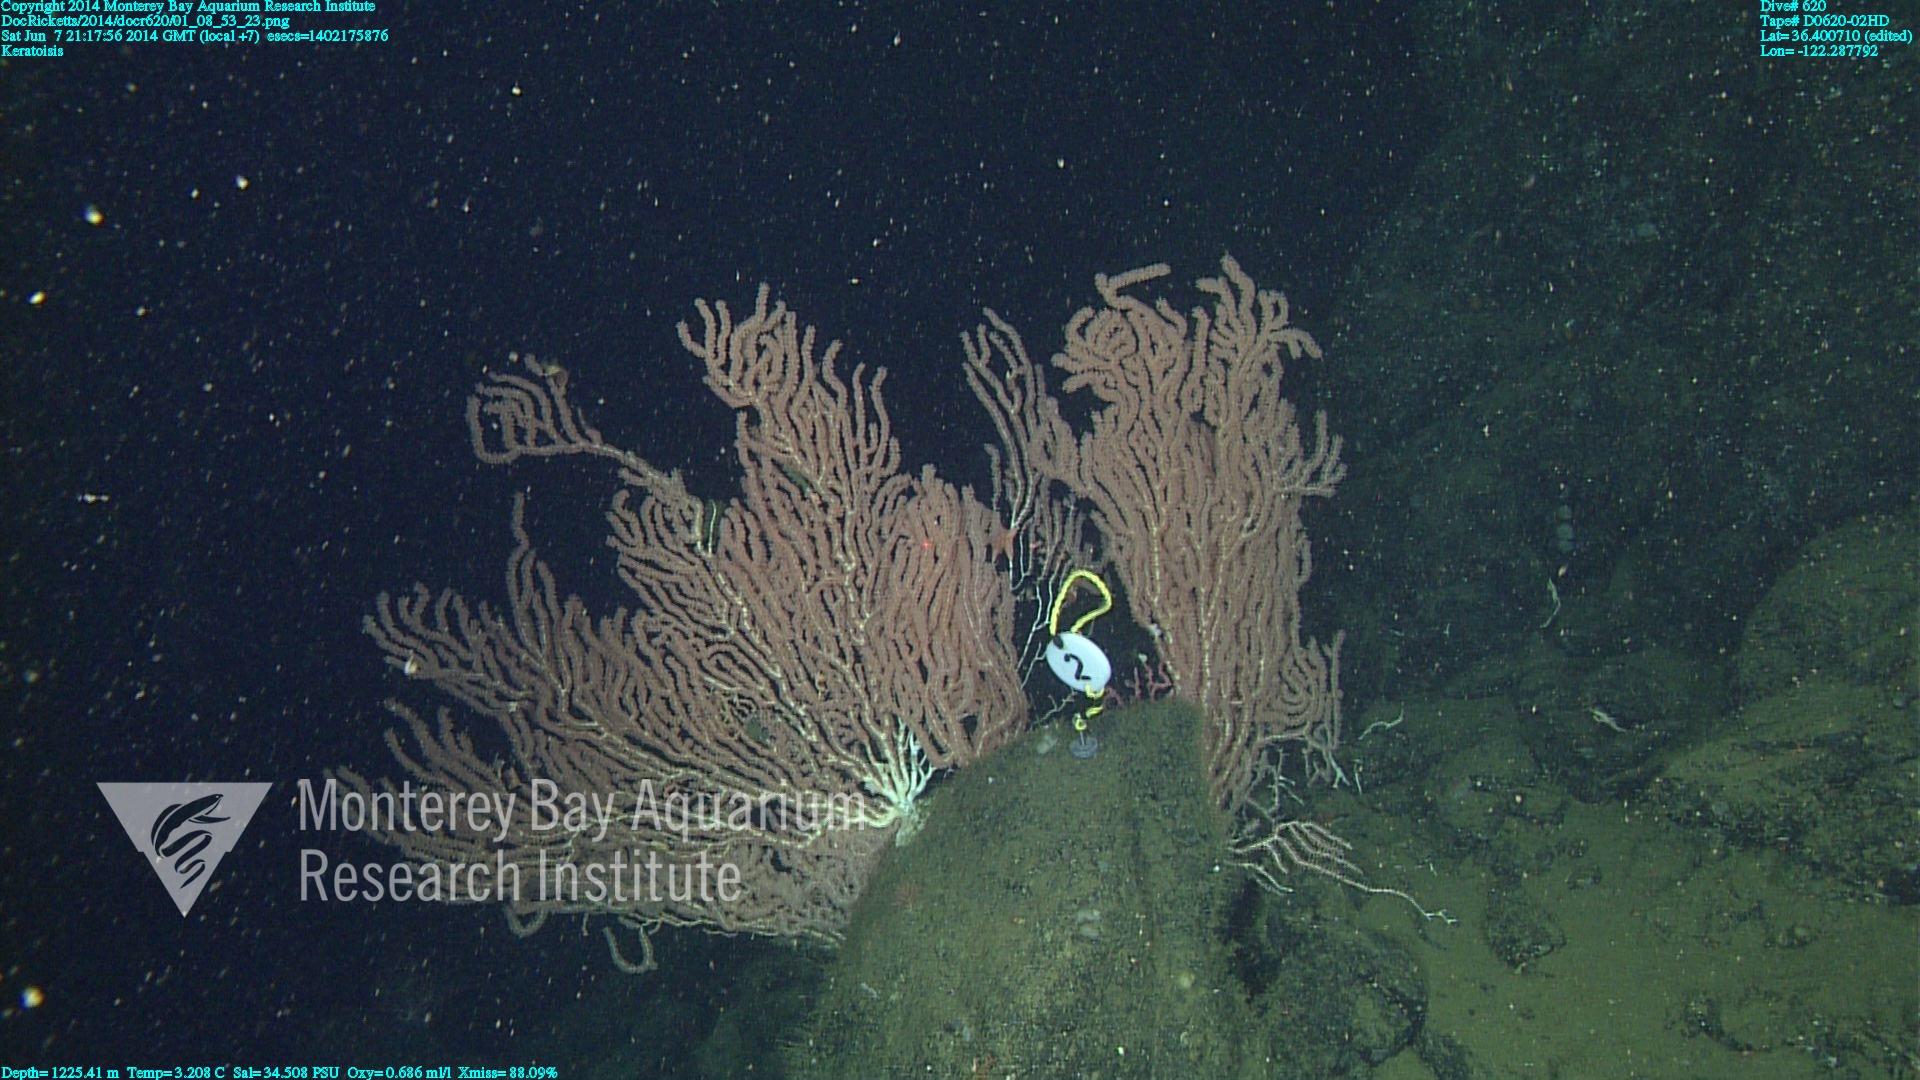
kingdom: Animalia
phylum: Cnidaria
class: Anthozoa
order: Scleralcyonacea
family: Keratoisididae
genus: Keratoisis
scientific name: Keratoisis
